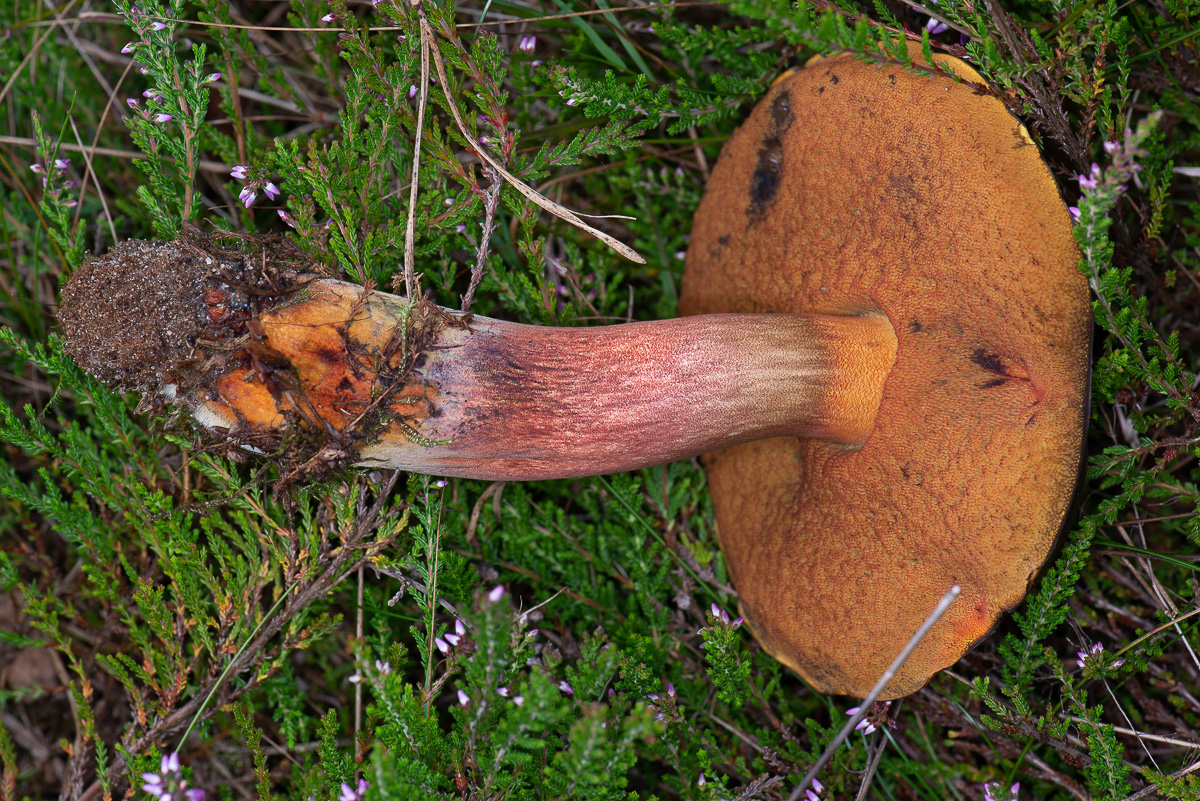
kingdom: Fungi
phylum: Basidiomycota
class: Agaricomycetes
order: Boletales
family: Boletaceae
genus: Neoboletus
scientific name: Neoboletus erythropus
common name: punktstokket indigorørhat
